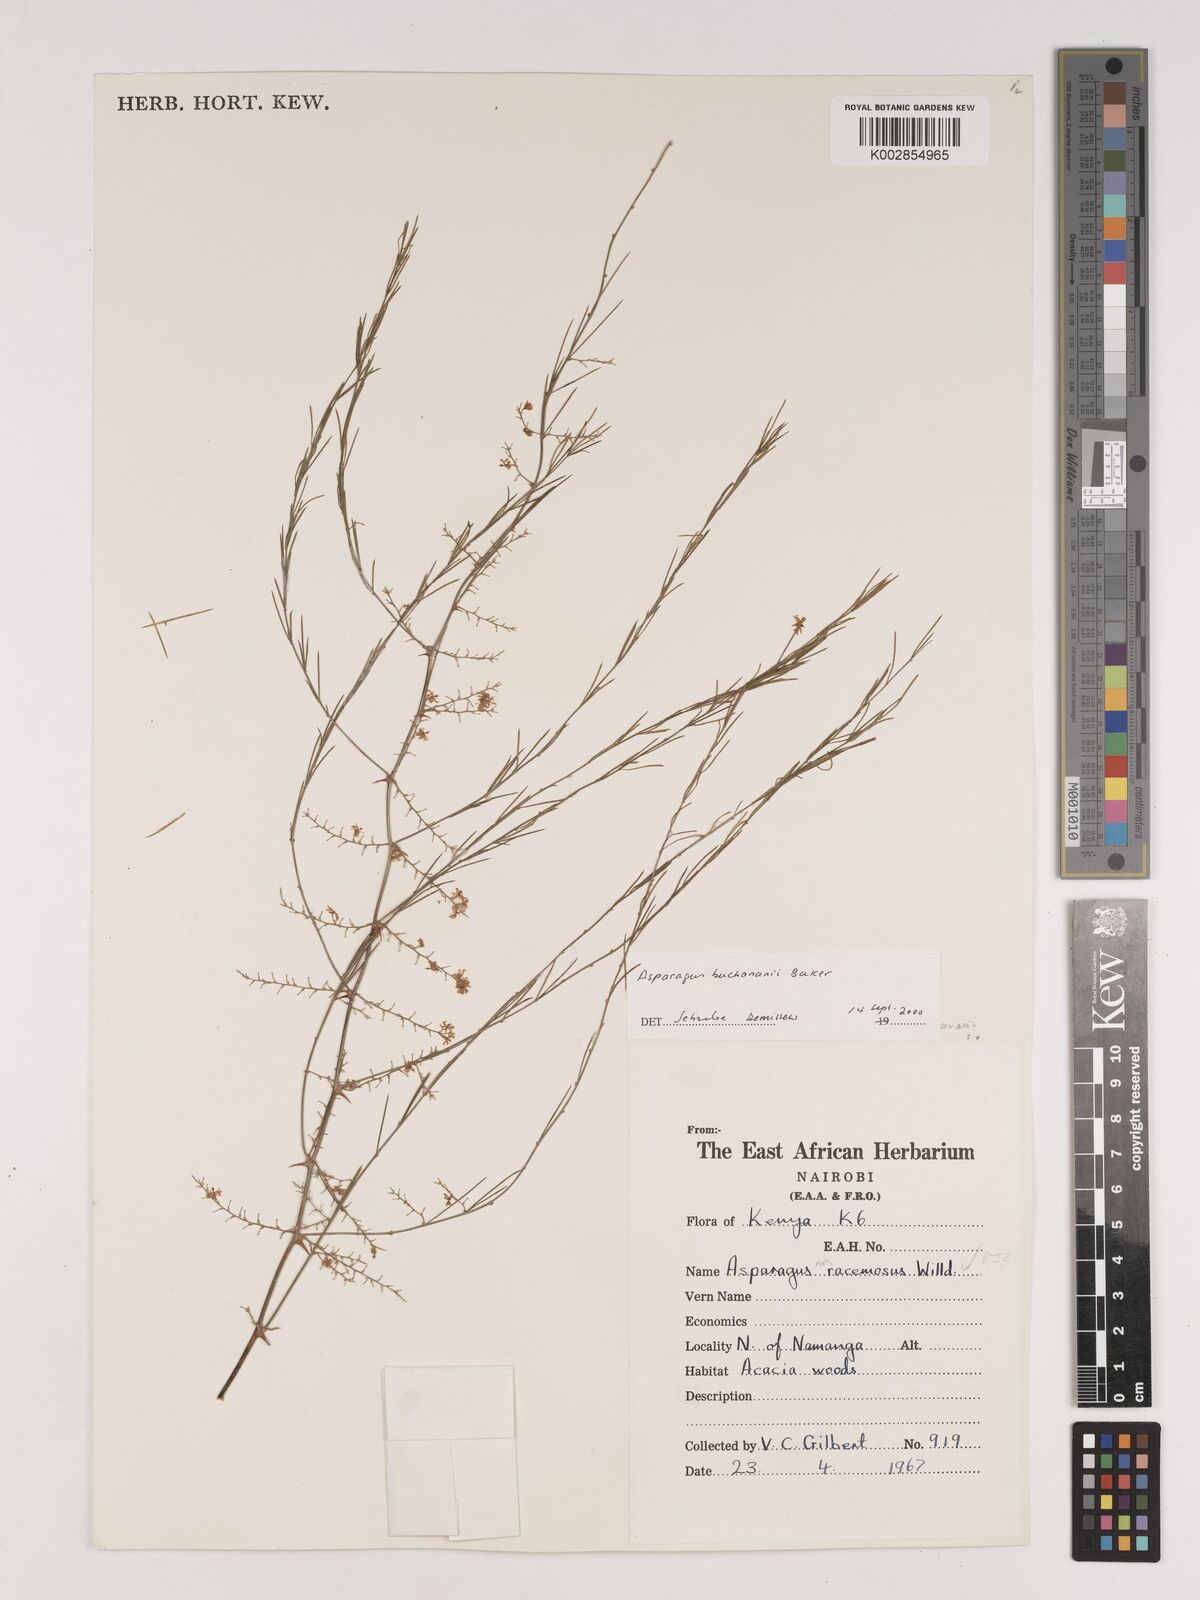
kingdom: Plantae
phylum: Tracheophyta
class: Liliopsida
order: Asparagales
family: Asparagaceae
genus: Asparagus
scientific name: Asparagus buchananii
